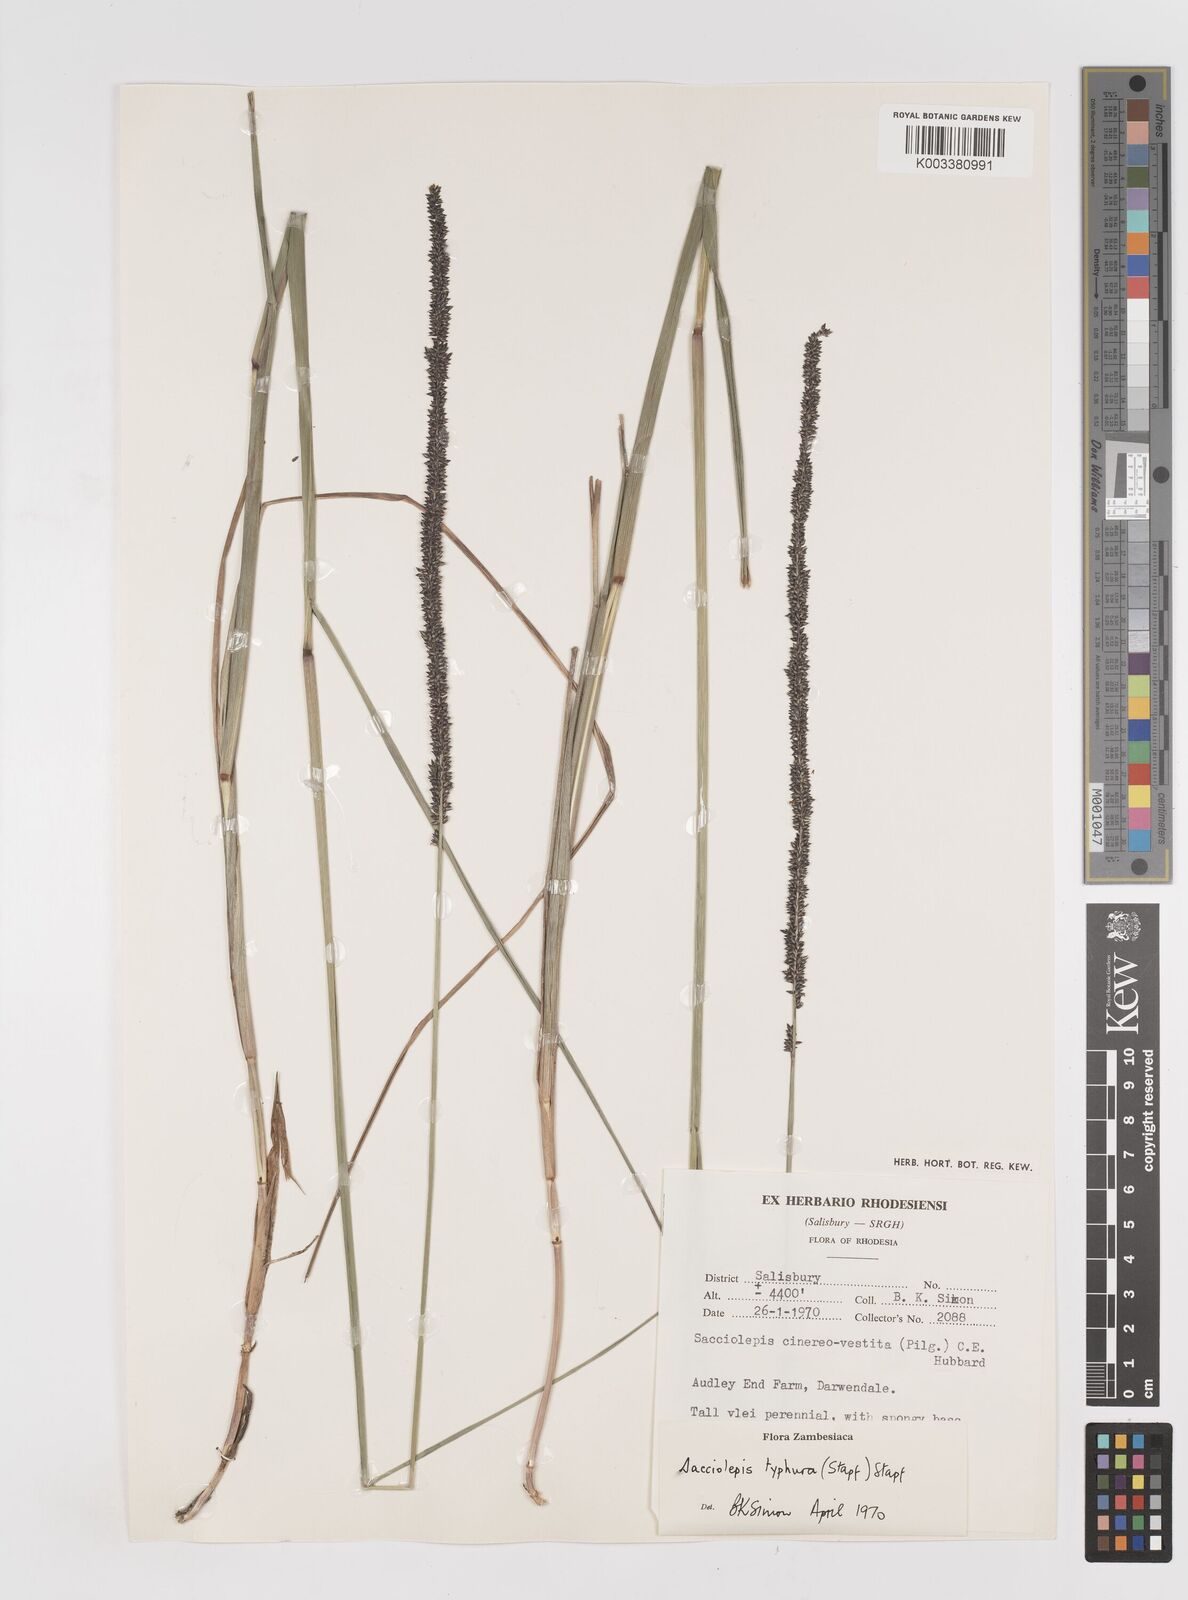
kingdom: Plantae
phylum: Tracheophyta
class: Liliopsida
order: Poales
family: Poaceae
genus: Sacciolepis
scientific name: Sacciolepis typhura
